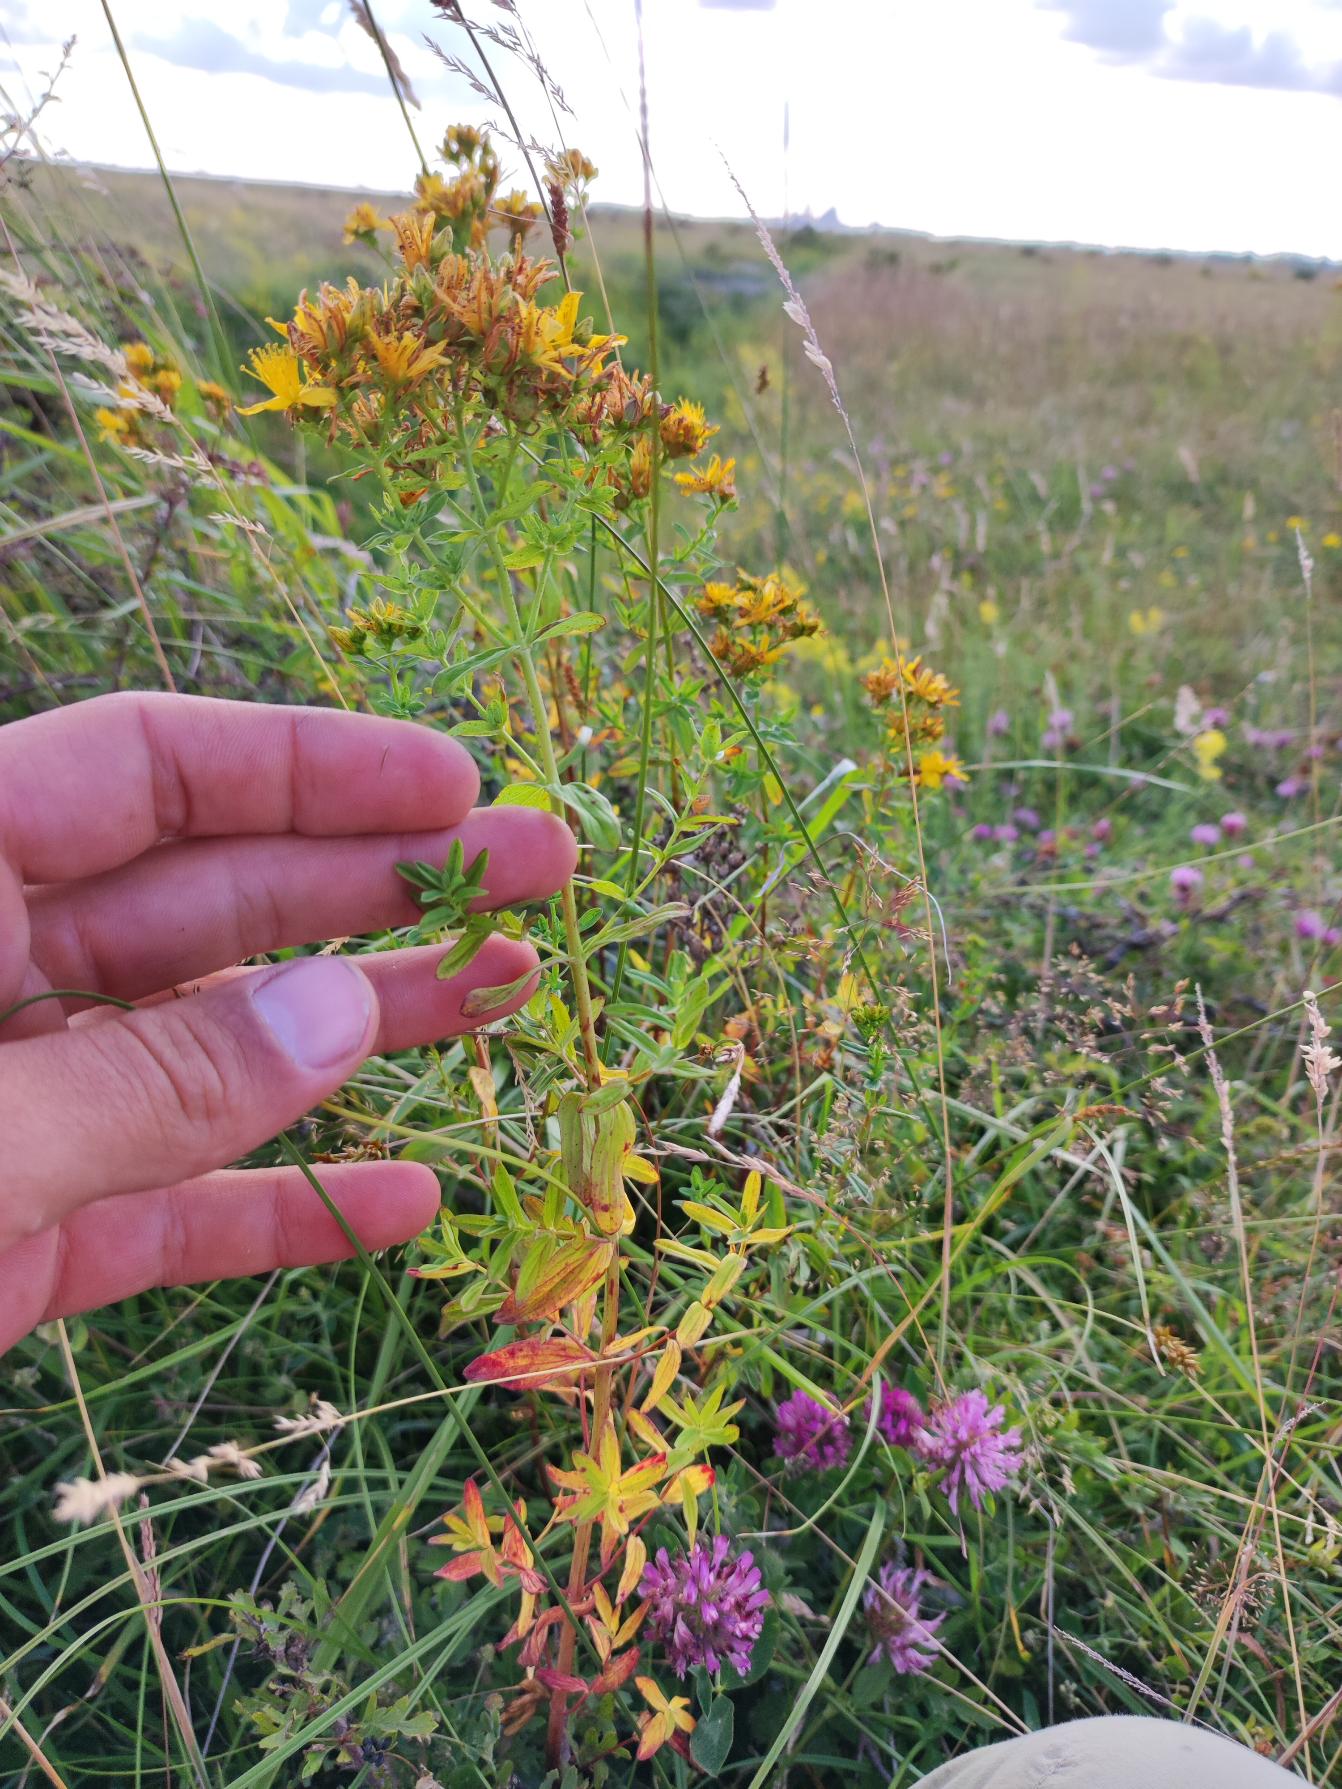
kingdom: Plantae
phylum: Tracheophyta
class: Magnoliopsida
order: Malpighiales
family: Hypericaceae
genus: Hypericum
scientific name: Hypericum perforatum
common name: Prikbladet perikon
